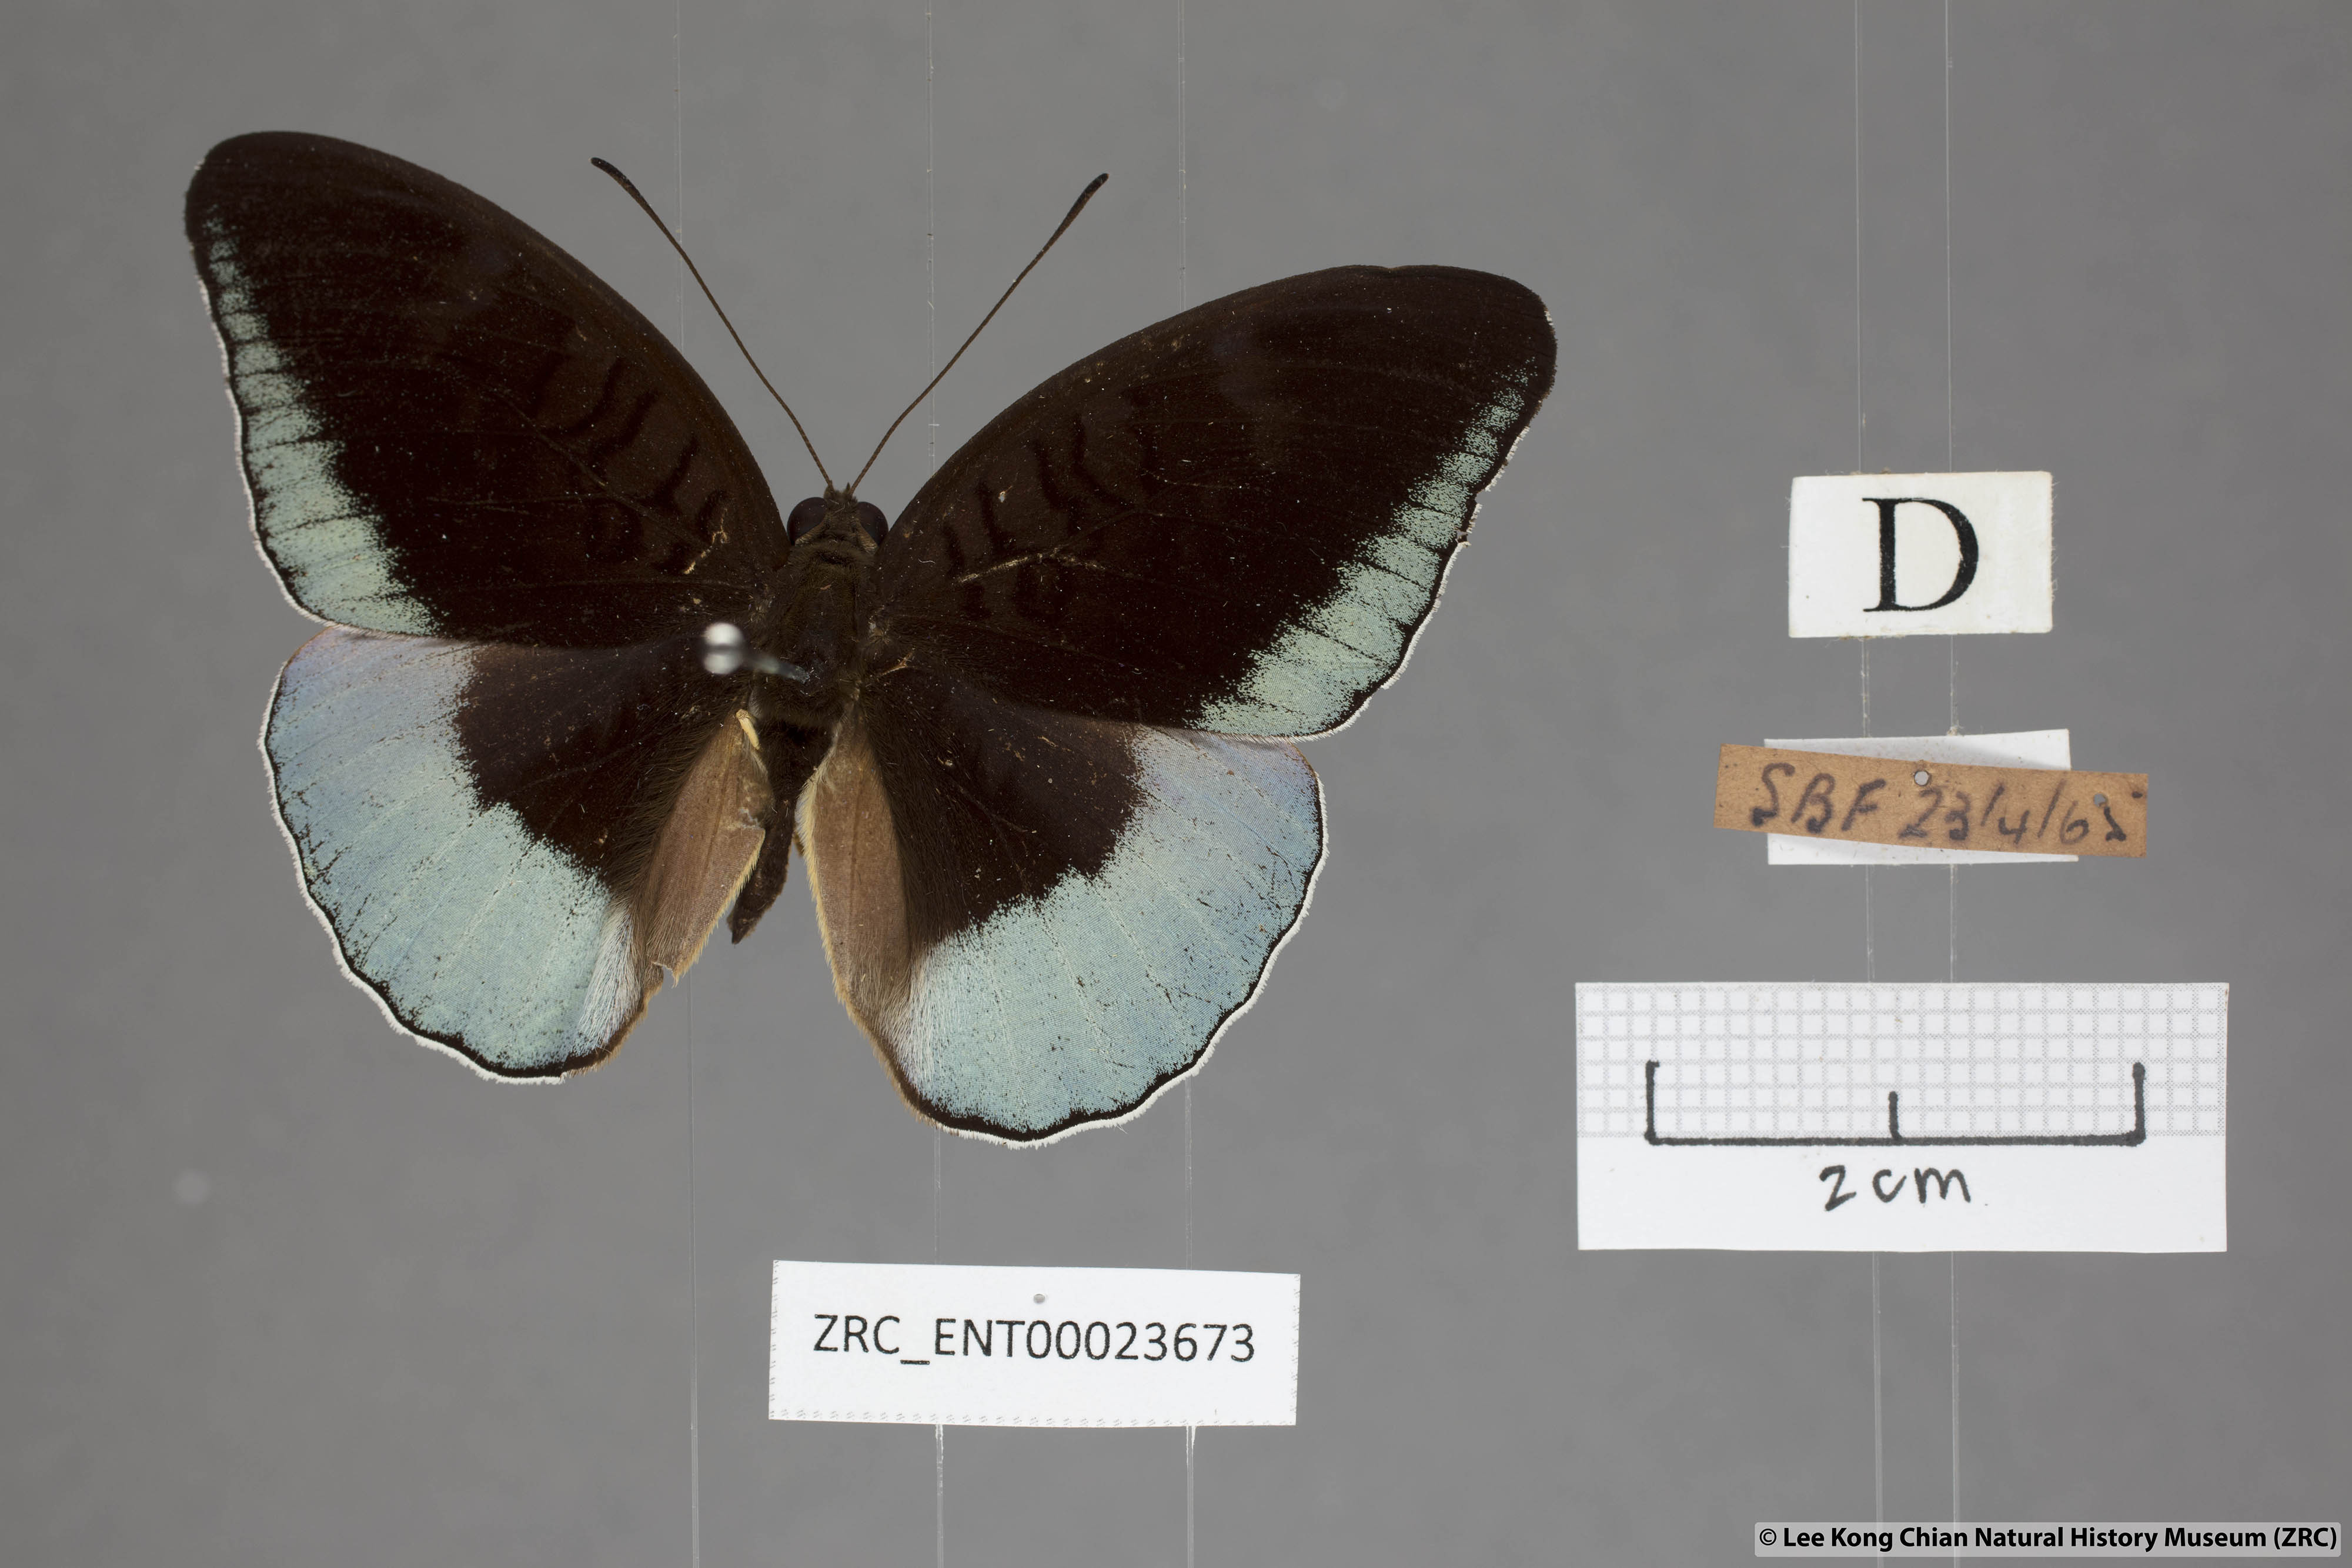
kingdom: Animalia
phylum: Arthropoda
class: Insecta
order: Lepidoptera
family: Nymphalidae
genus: Tanaecia
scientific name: Tanaecia iapis
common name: Horsfield's baron
